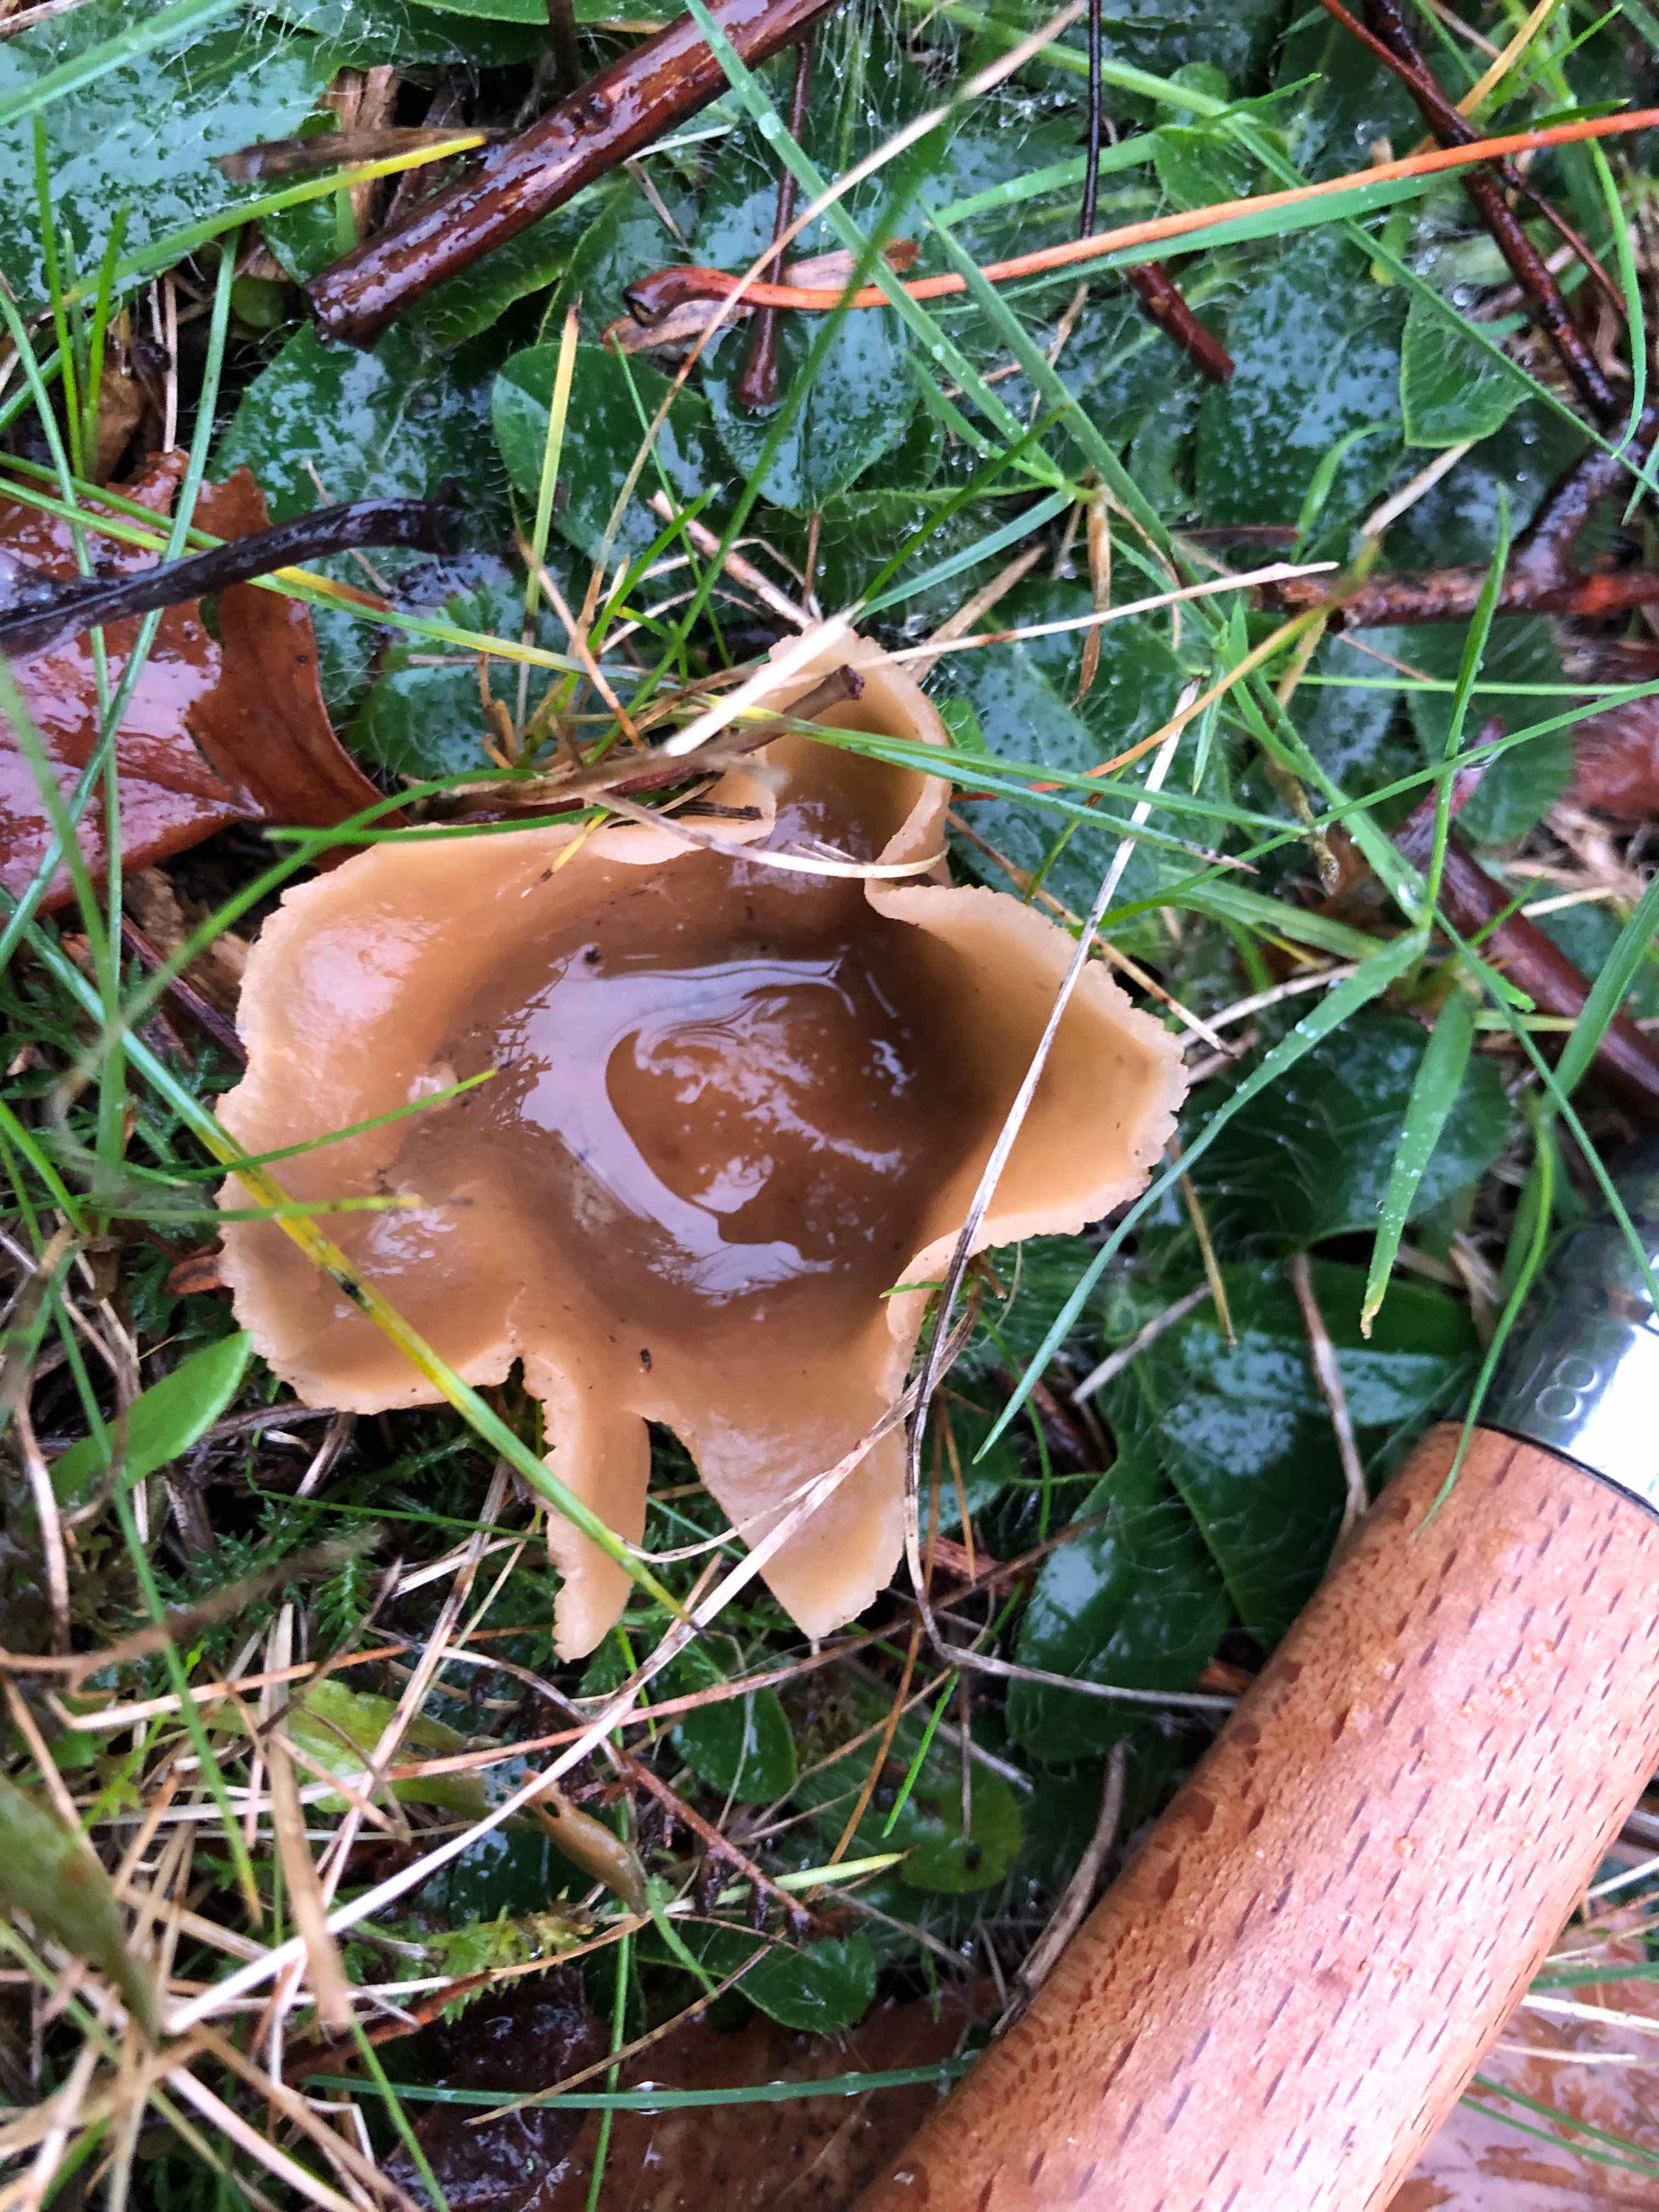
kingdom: Fungi
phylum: Ascomycota
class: Pezizomycetes
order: Pezizales
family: Pezizaceae
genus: Peziza
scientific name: Peziza vesiculosa
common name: blære-bægersvamp
